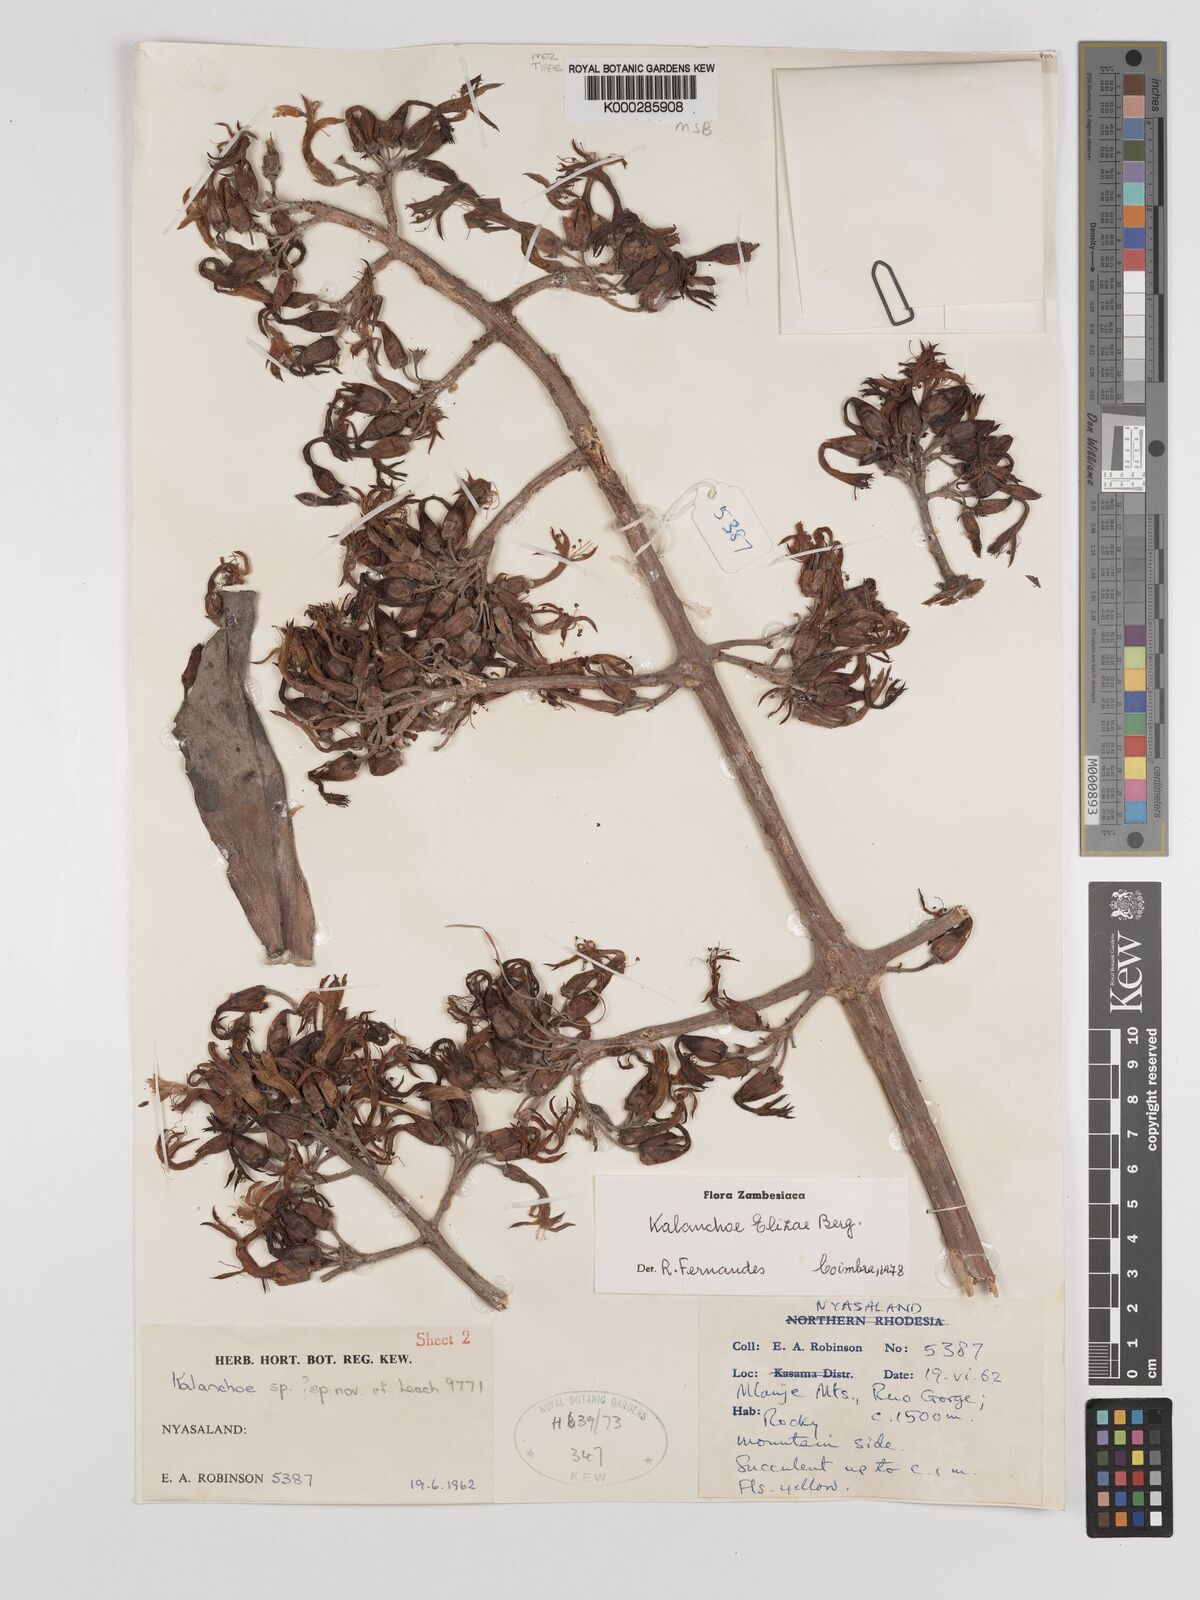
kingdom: Plantae
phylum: Tracheophyta
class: Magnoliopsida
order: Saxifragales
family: Crassulaceae
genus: Kalanchoe
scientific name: Kalanchoe elizae
